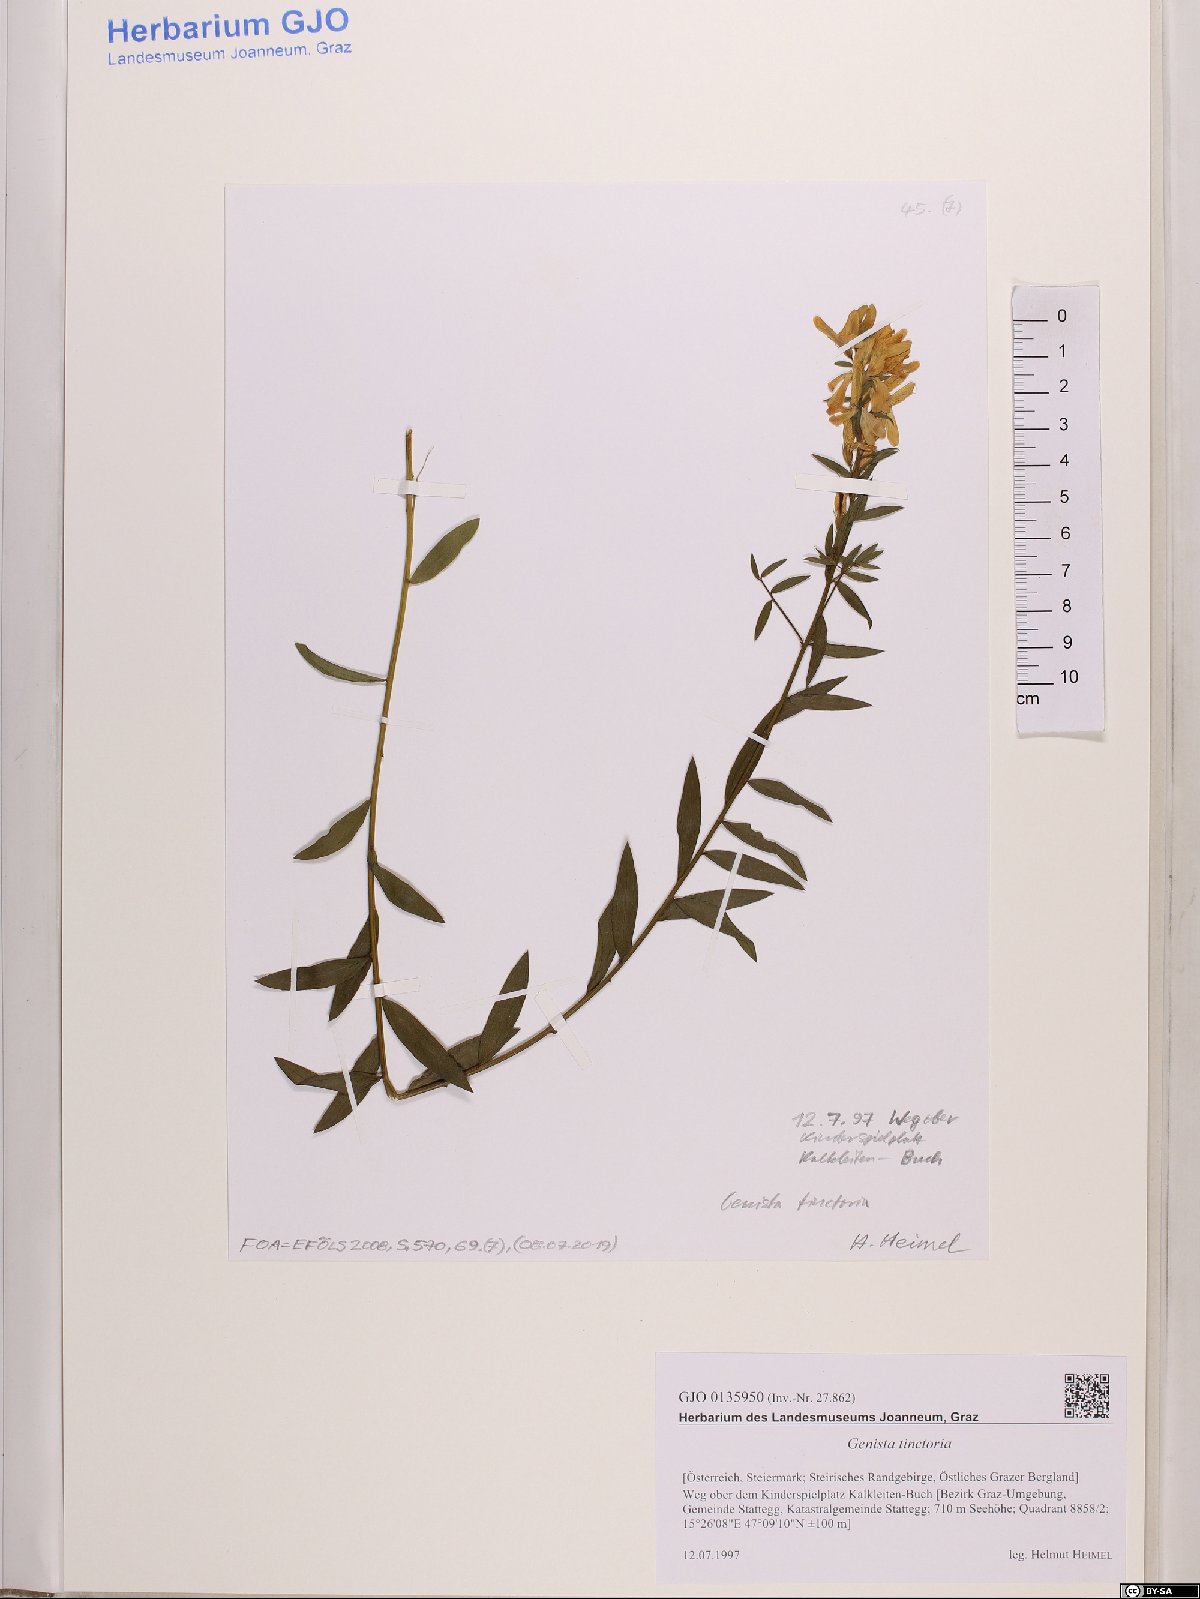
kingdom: Plantae
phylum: Tracheophyta
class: Magnoliopsida
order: Fabales
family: Fabaceae
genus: Genista
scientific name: Genista tinctoria
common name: Dyer's greenweed
